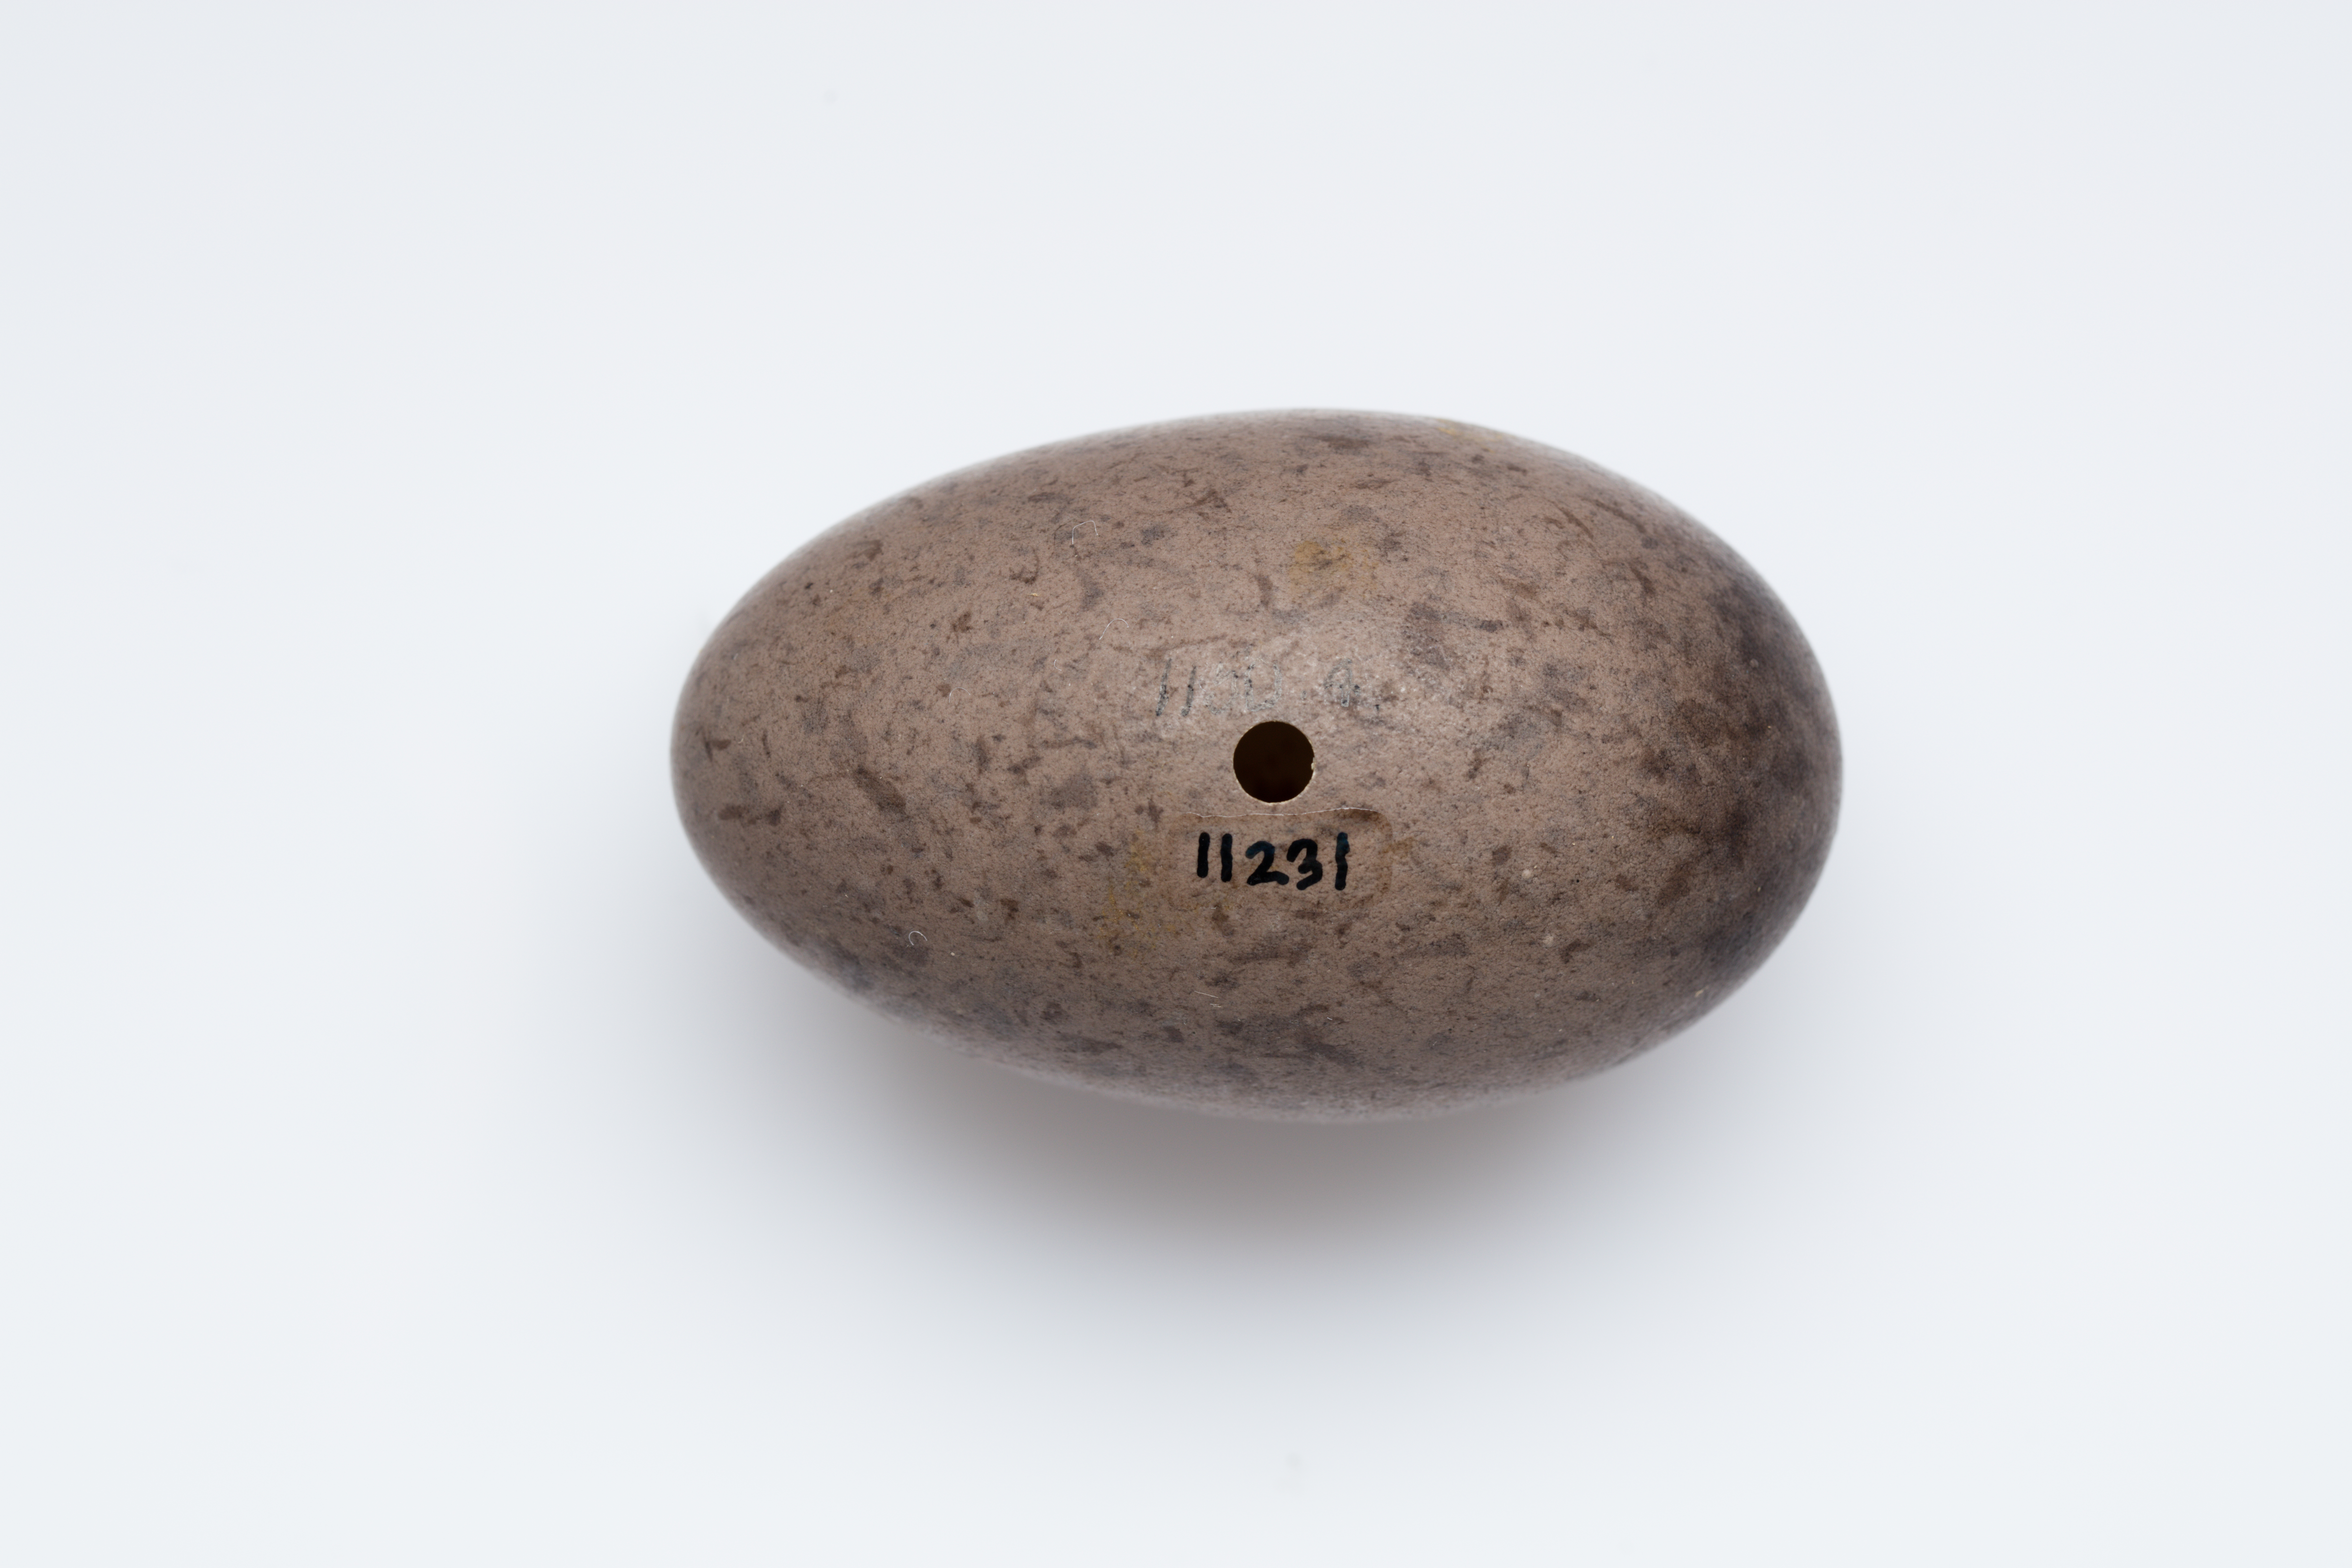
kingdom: Animalia
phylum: Chordata
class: Aves
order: Passeriformes
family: Menuridae
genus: Menura
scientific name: Menura novaehollandiae
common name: Superb lyrebird
